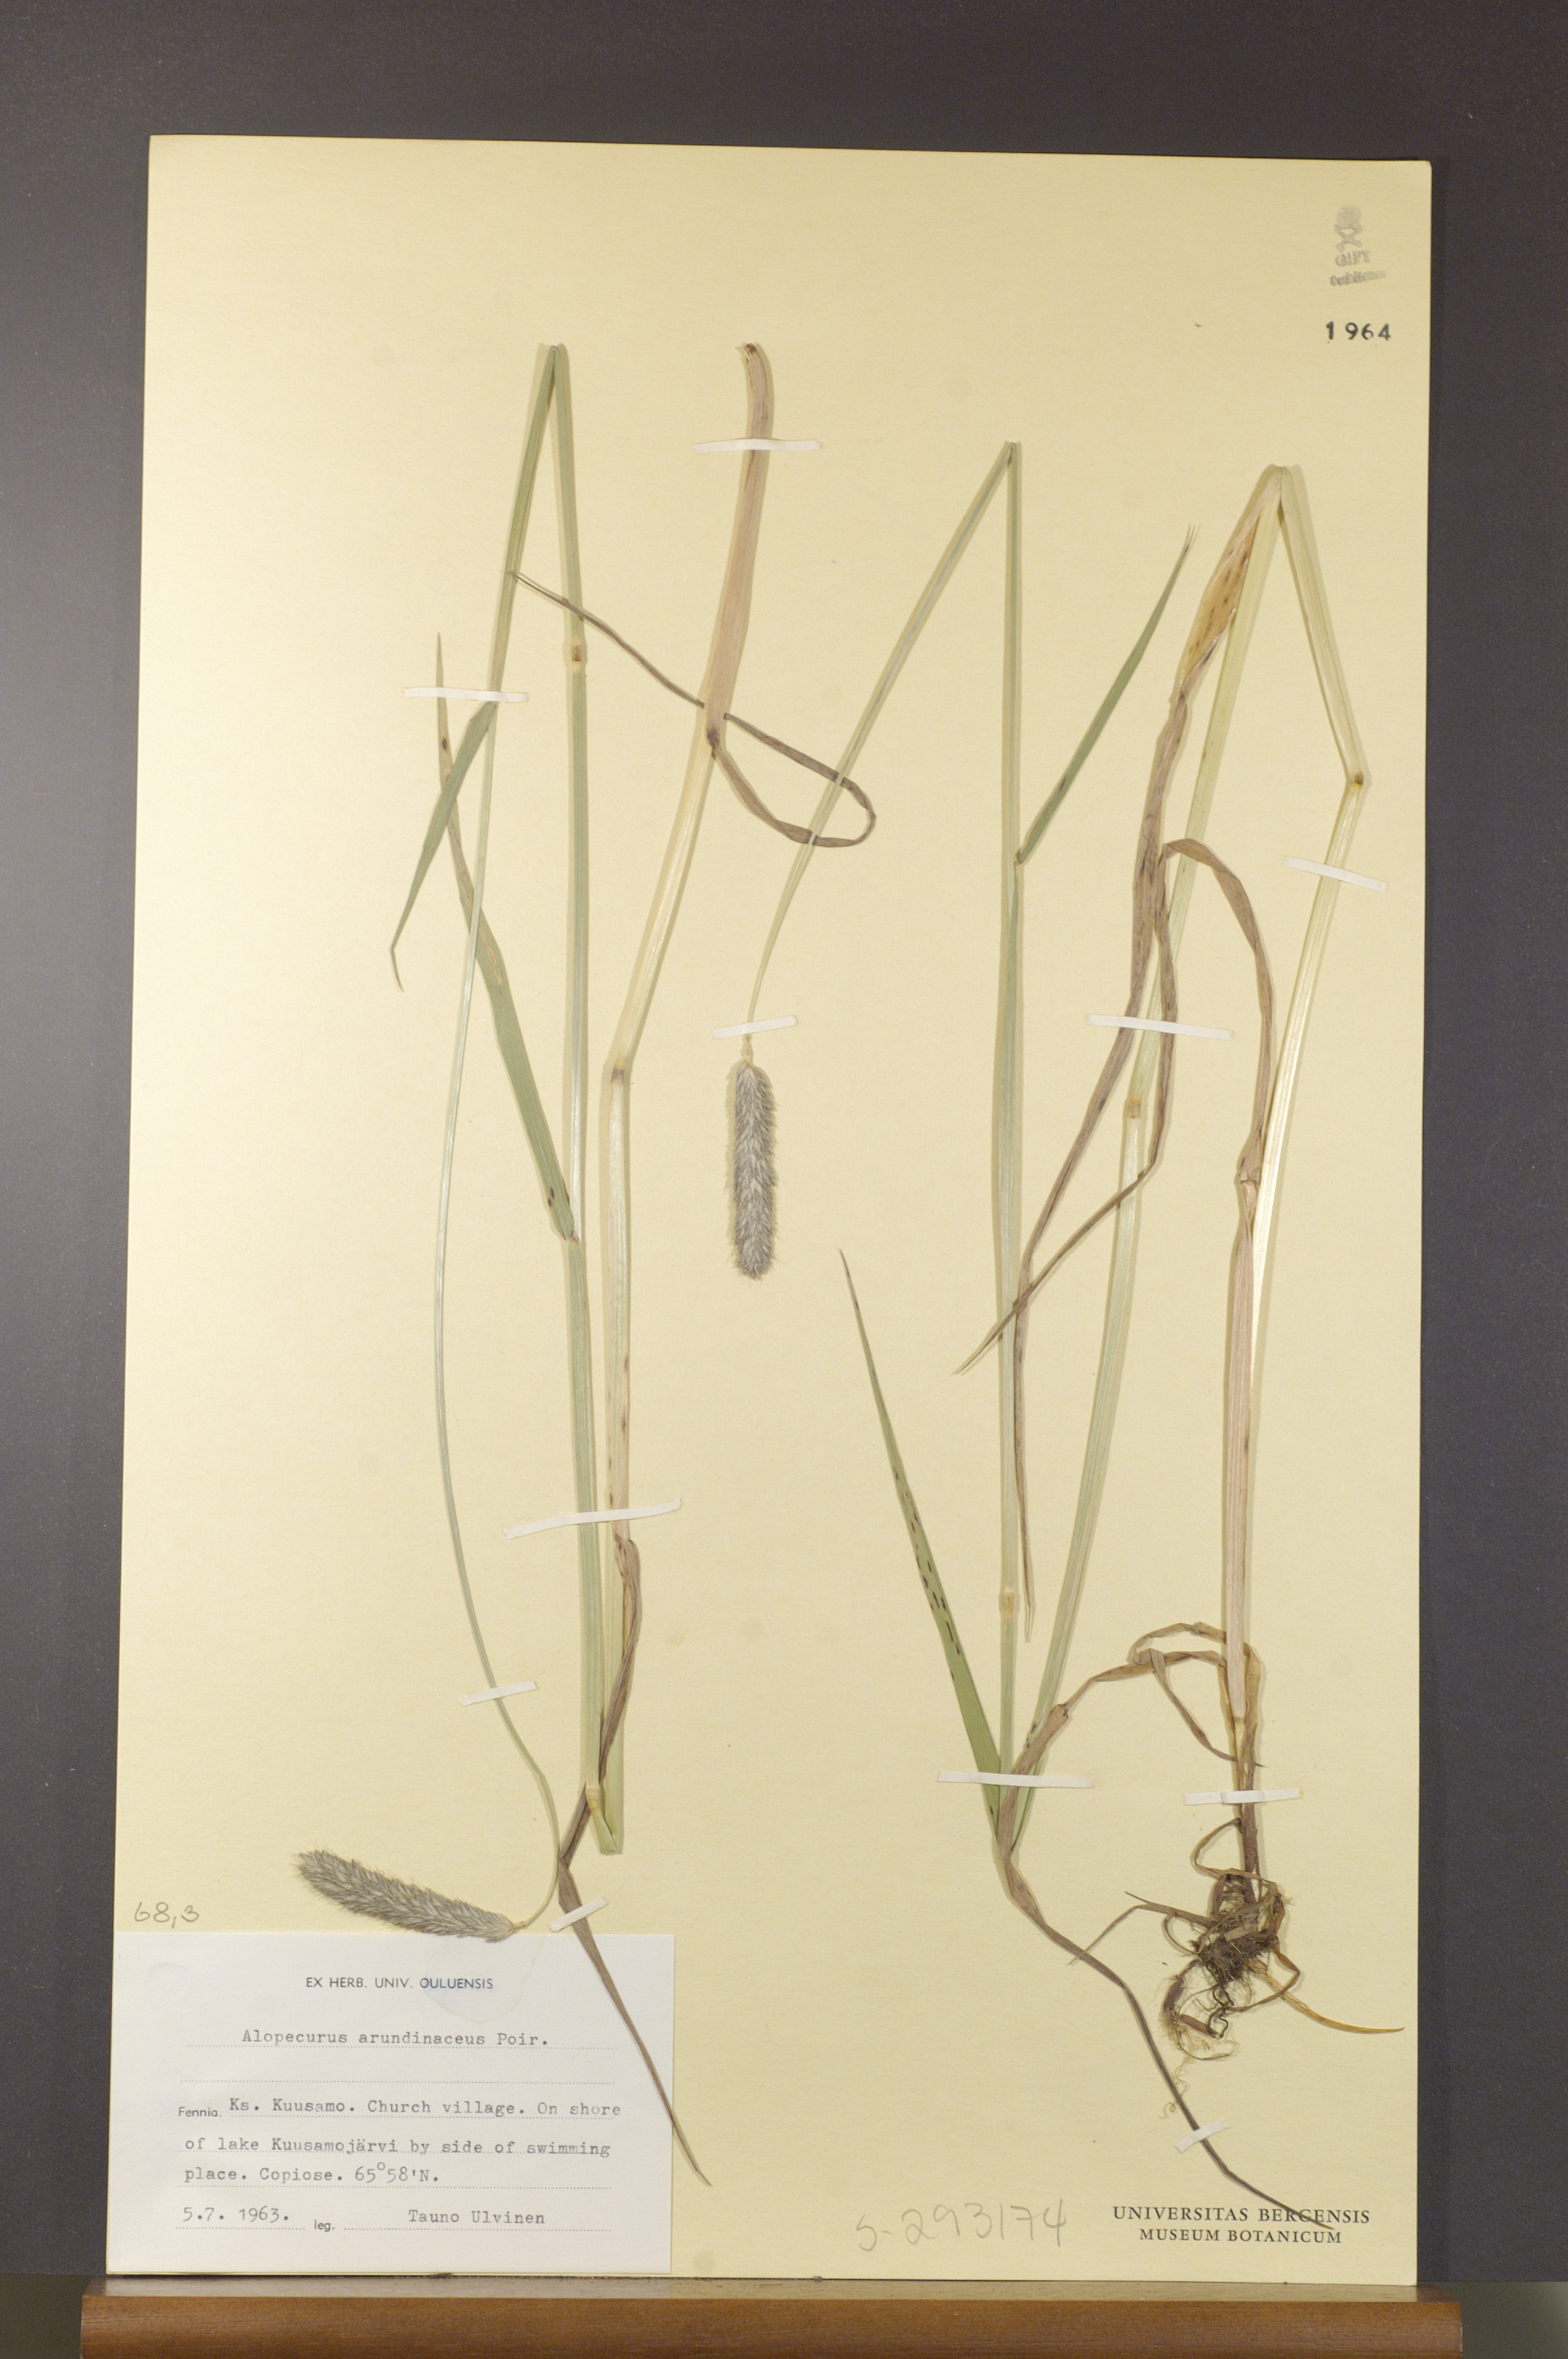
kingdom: Plantae
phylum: Tracheophyta
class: Liliopsida
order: Poales
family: Poaceae
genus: Alopecurus
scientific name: Alopecurus arundinaceus
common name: Creeping meadow foxtail
